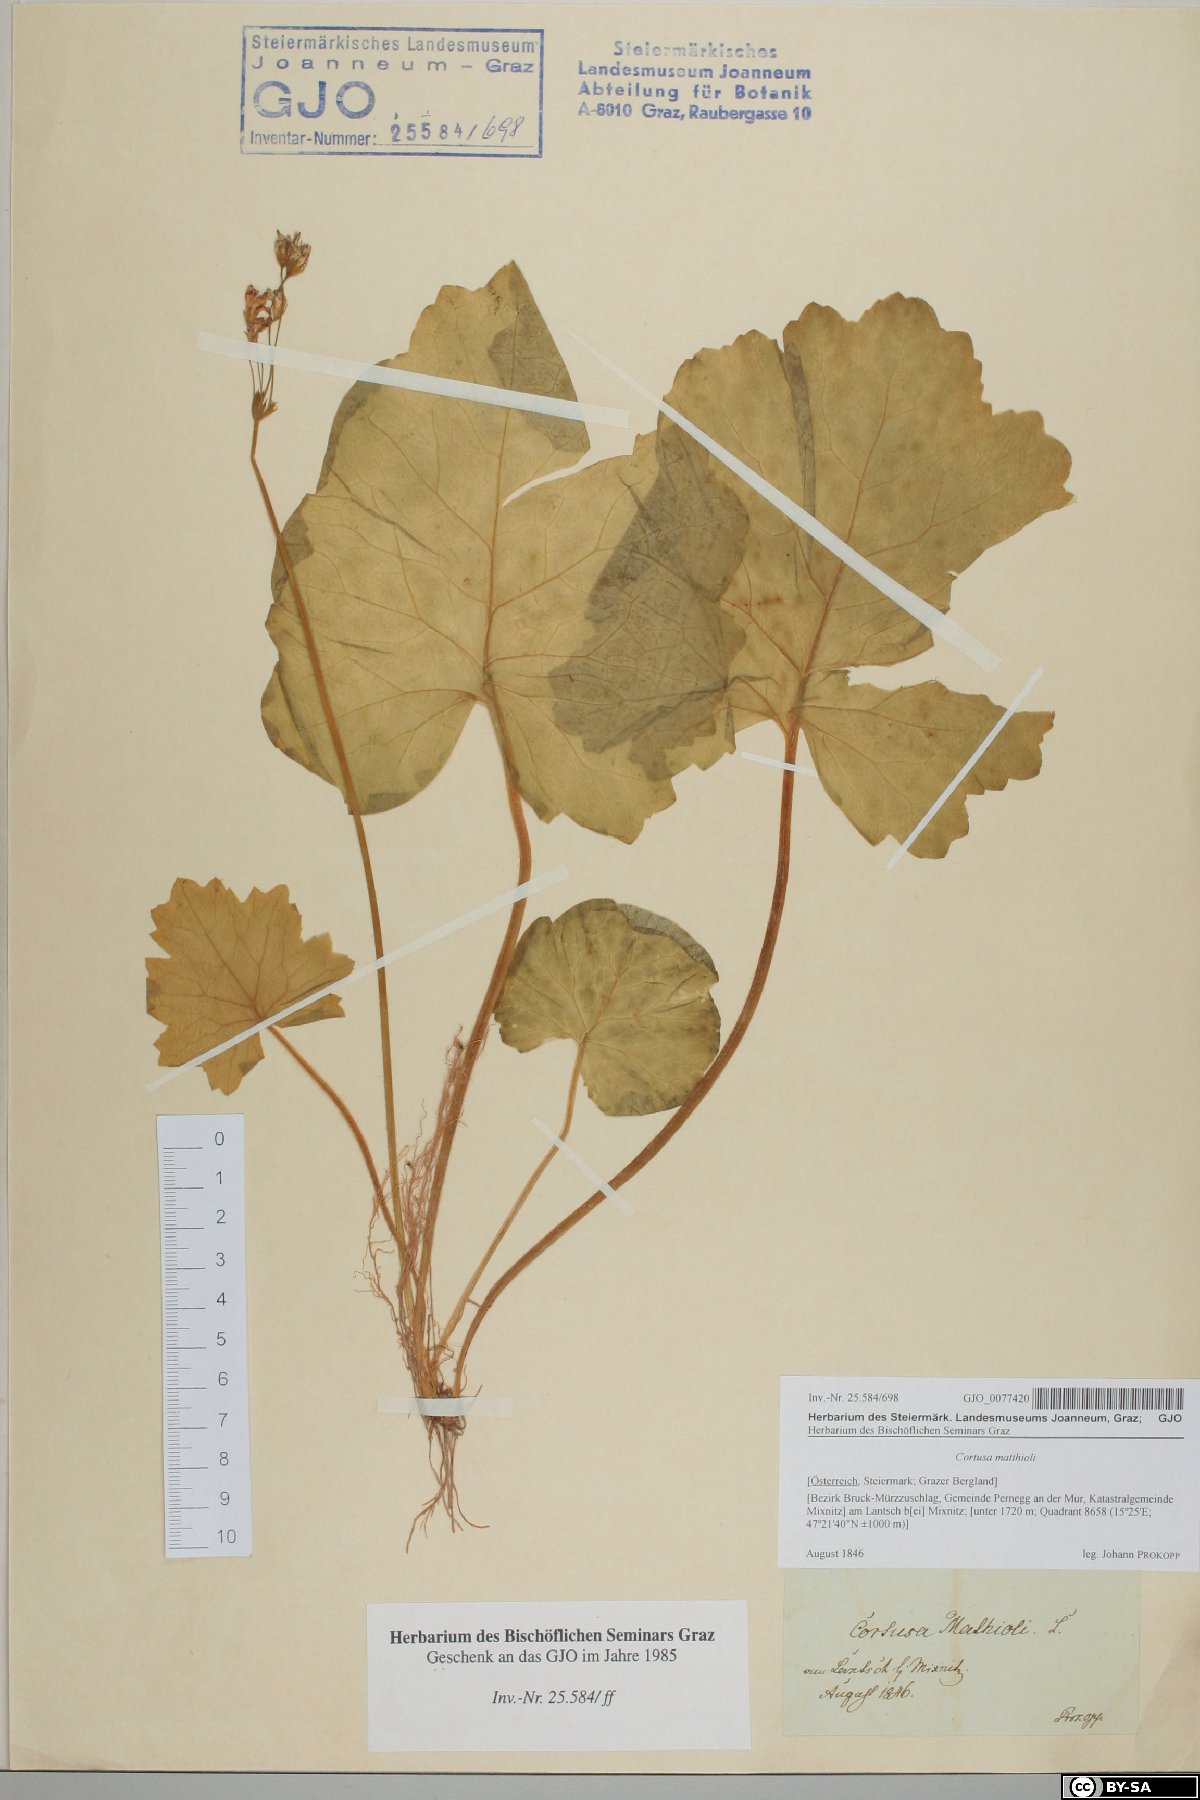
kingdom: Plantae
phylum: Tracheophyta
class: Magnoliopsida
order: Ericales
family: Primulaceae
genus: Primula
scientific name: Primula matthioli
